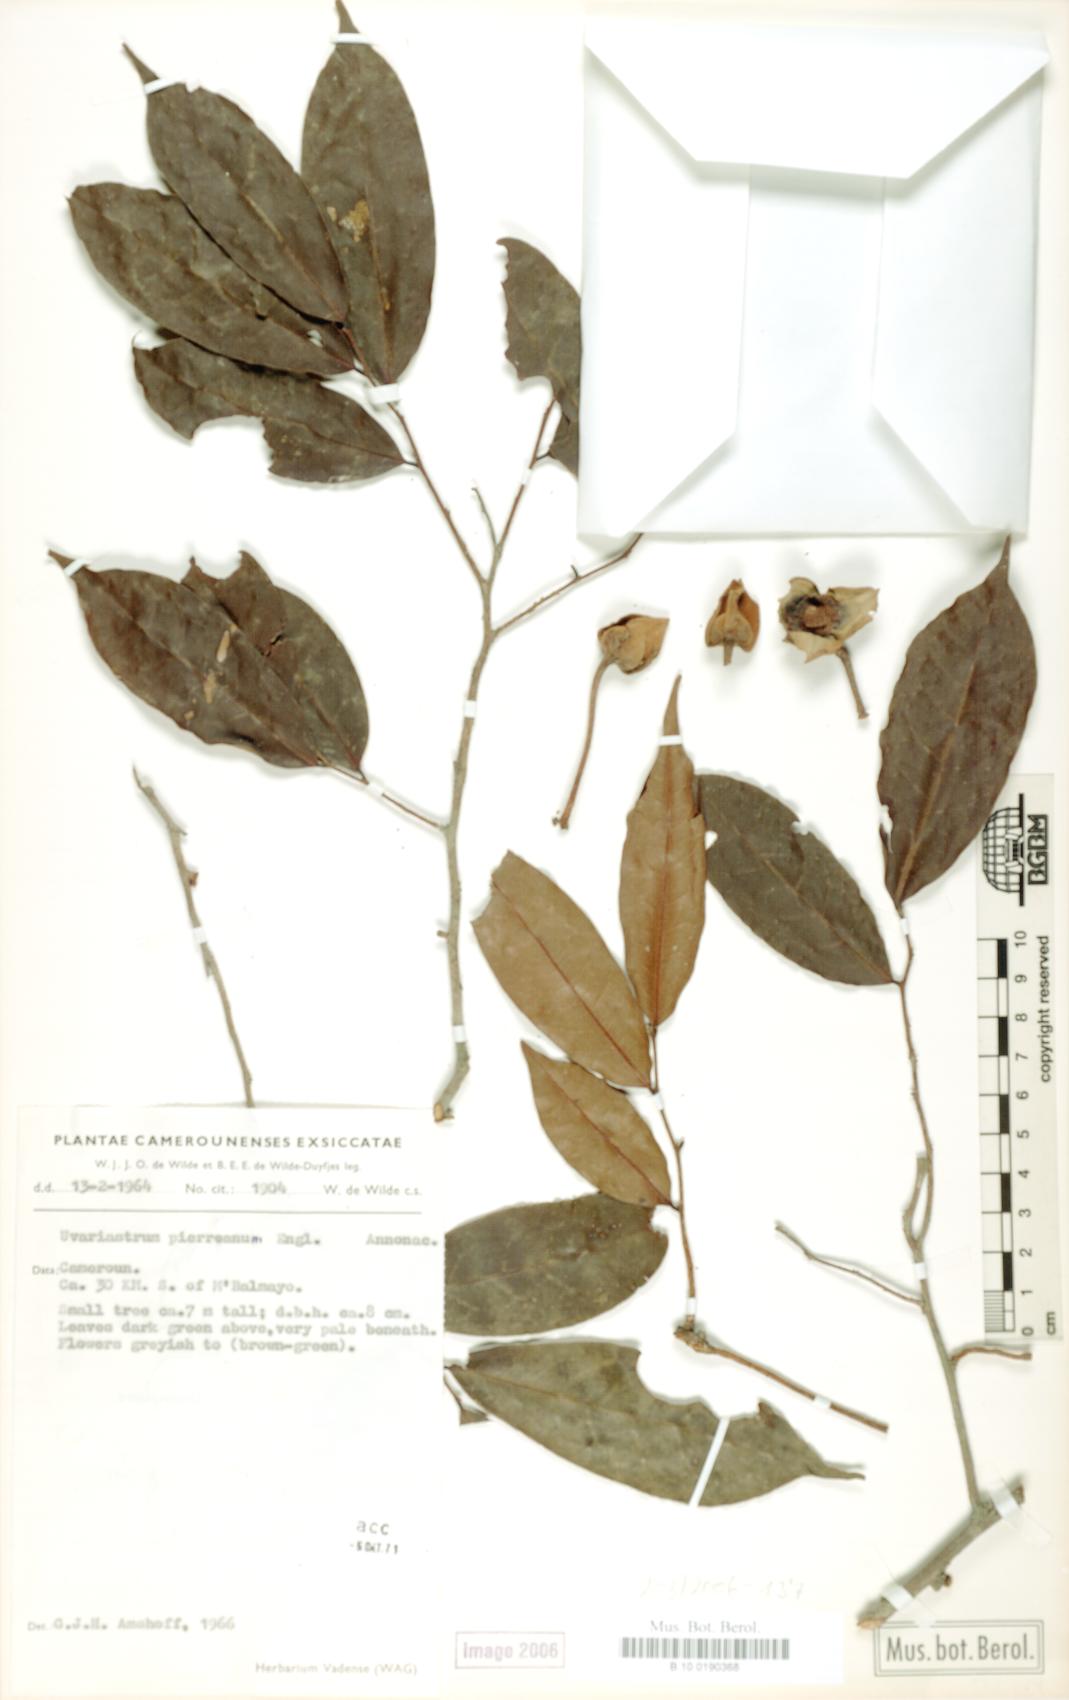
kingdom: Plantae
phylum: Tracheophyta
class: Magnoliopsida
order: Magnoliales
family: Annonaceae
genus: Uvariastrum
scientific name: Uvariastrum pierreanum
